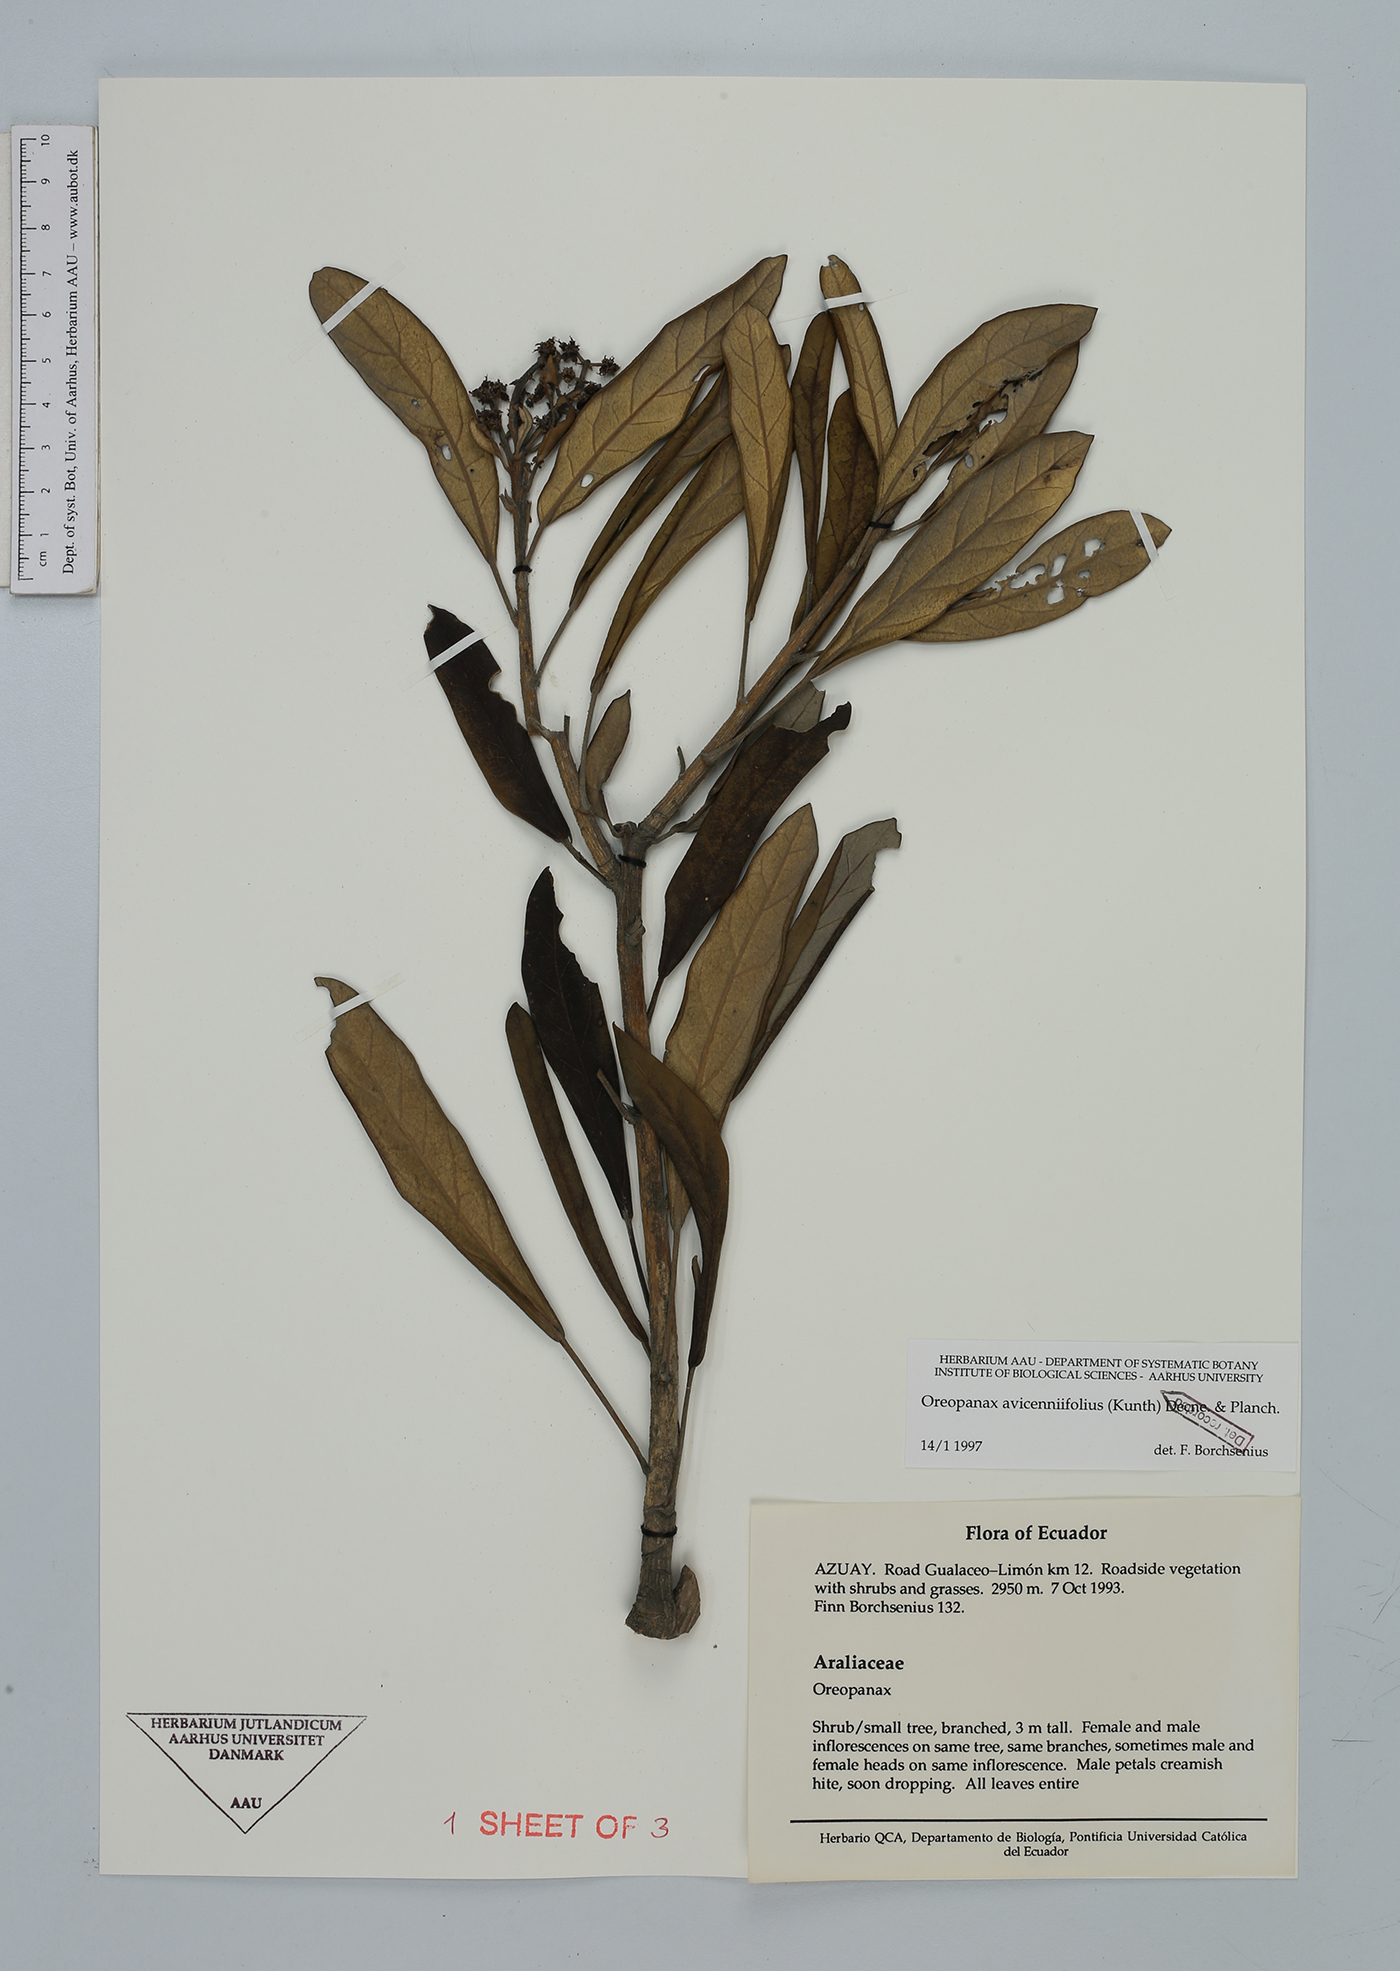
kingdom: Plantae
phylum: Tracheophyta
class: Magnoliopsida
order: Apiales
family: Araliaceae
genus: Oreopanax
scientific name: Oreopanax avicenniifolius
